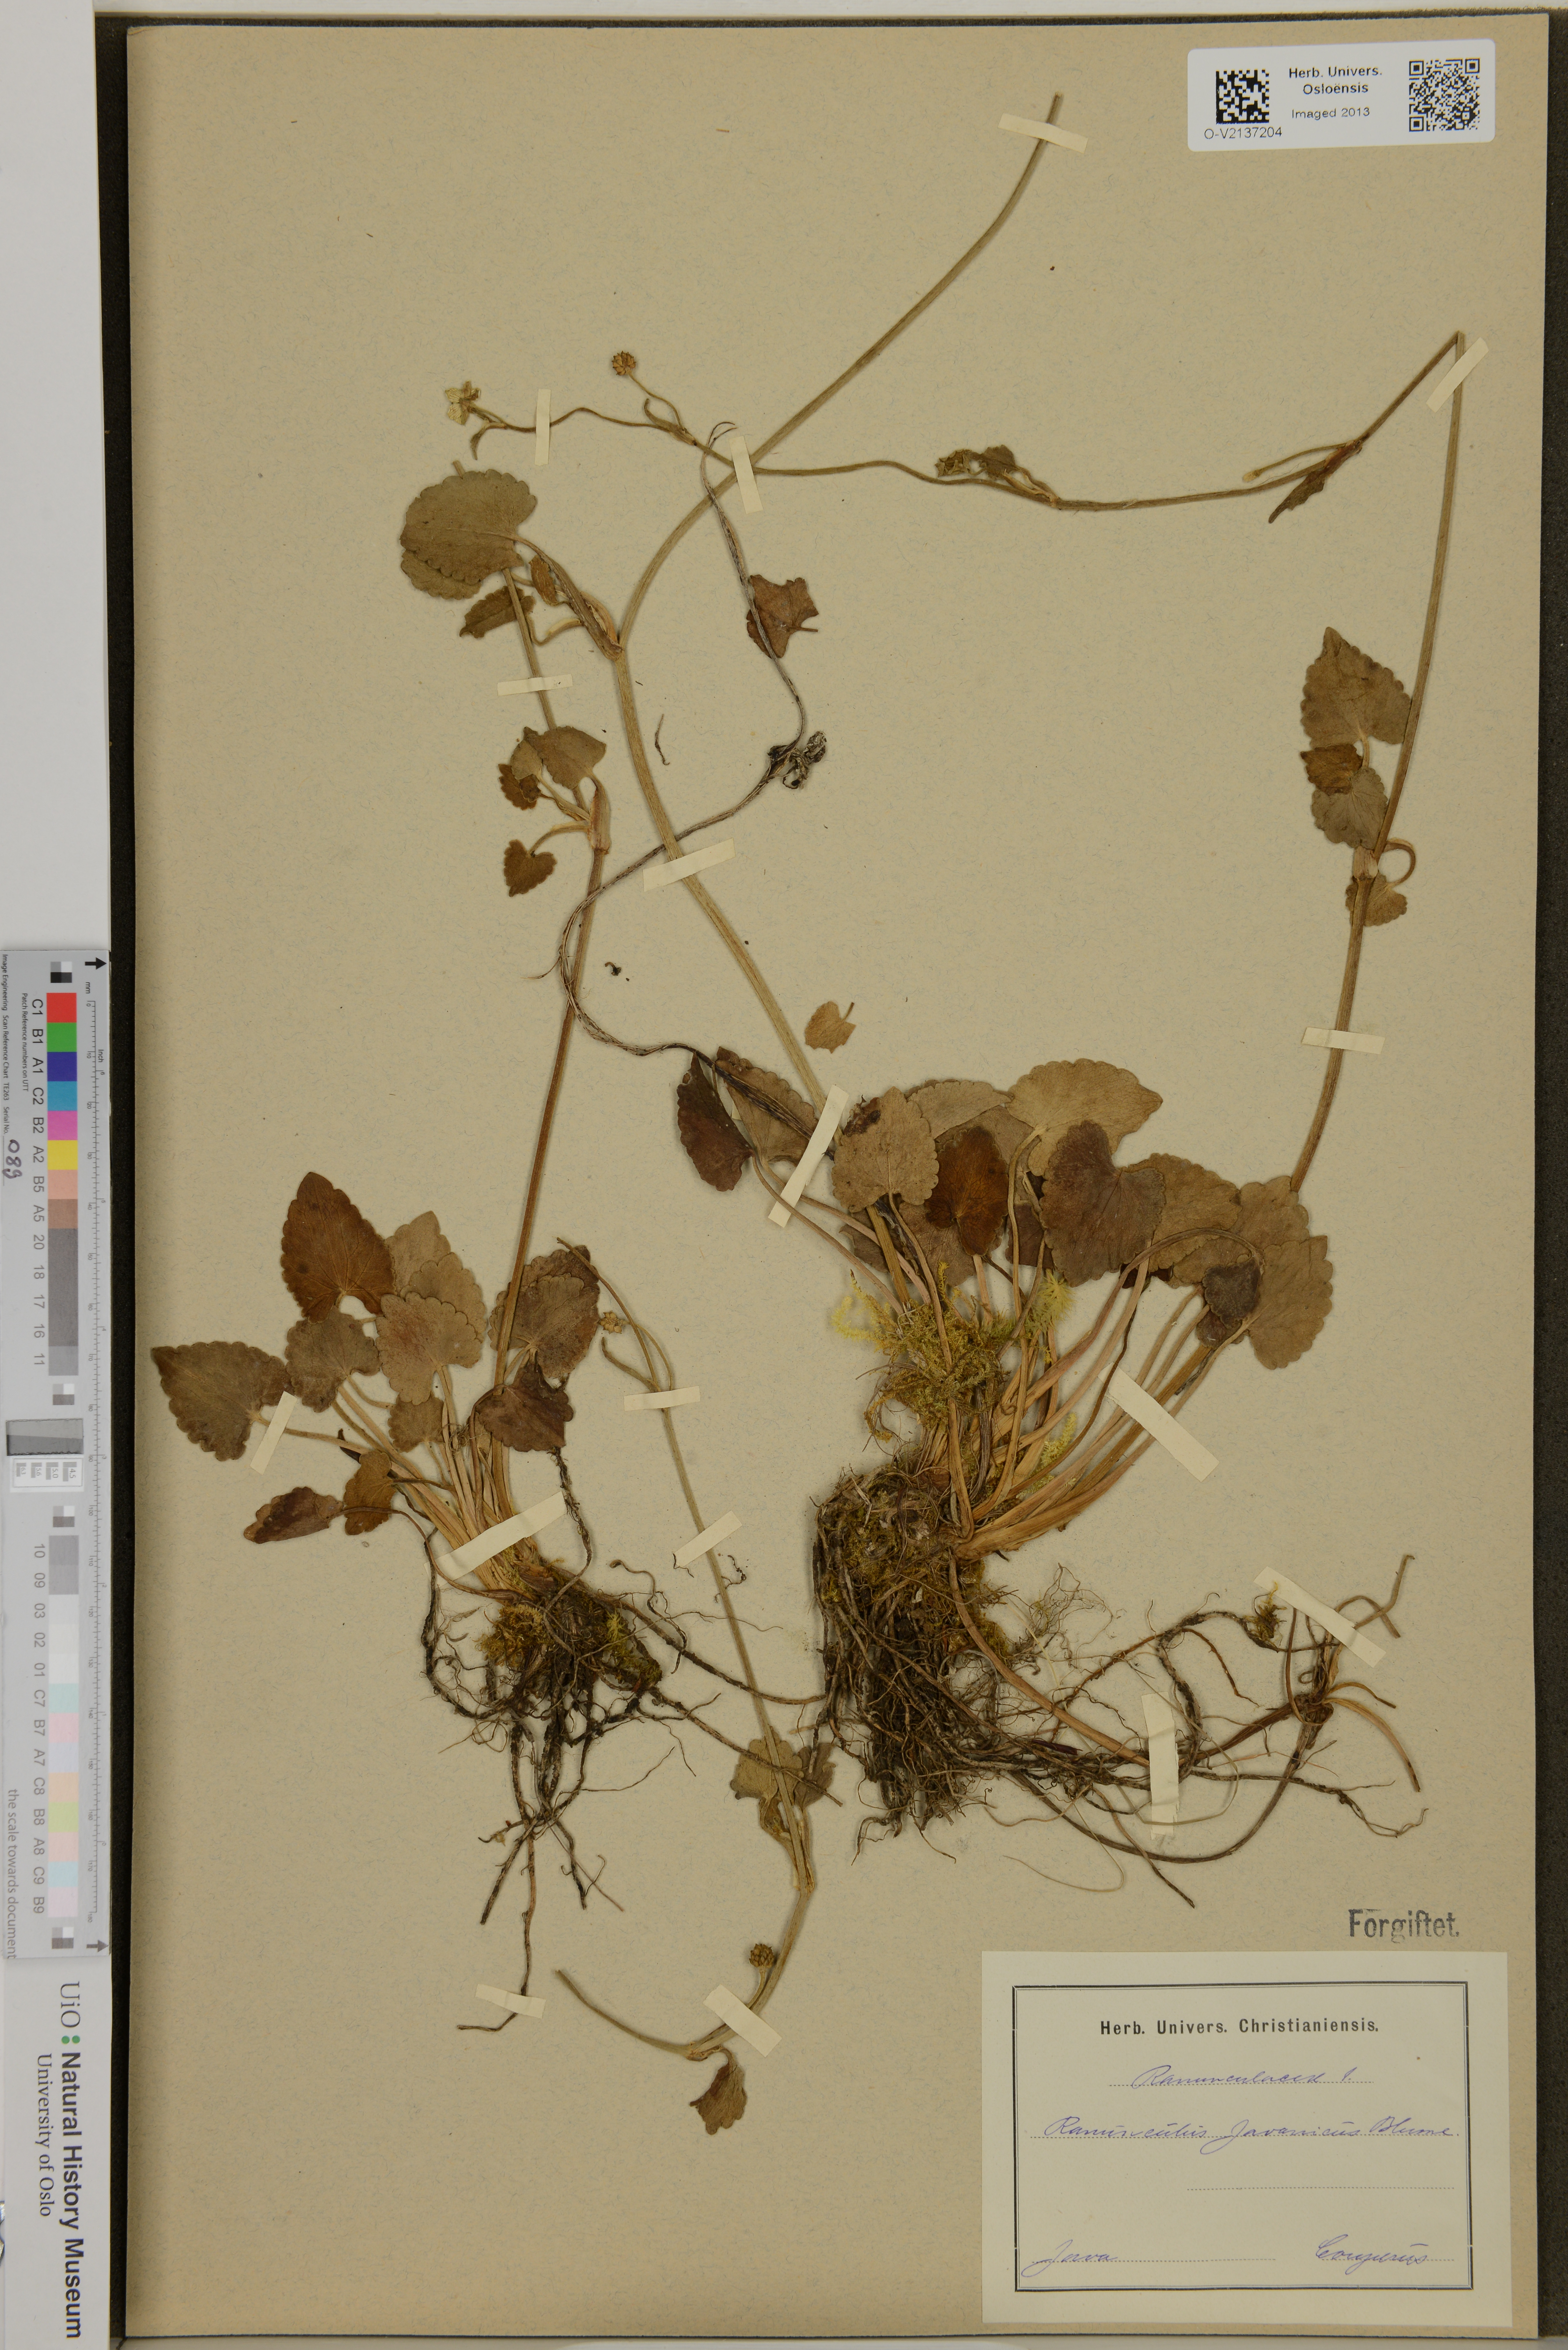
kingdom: Plantae
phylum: Tracheophyta
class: Magnoliopsida
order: Ranunculales
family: Ranunculaceae
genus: Ranunculus
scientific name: Ranunculus javanicus
